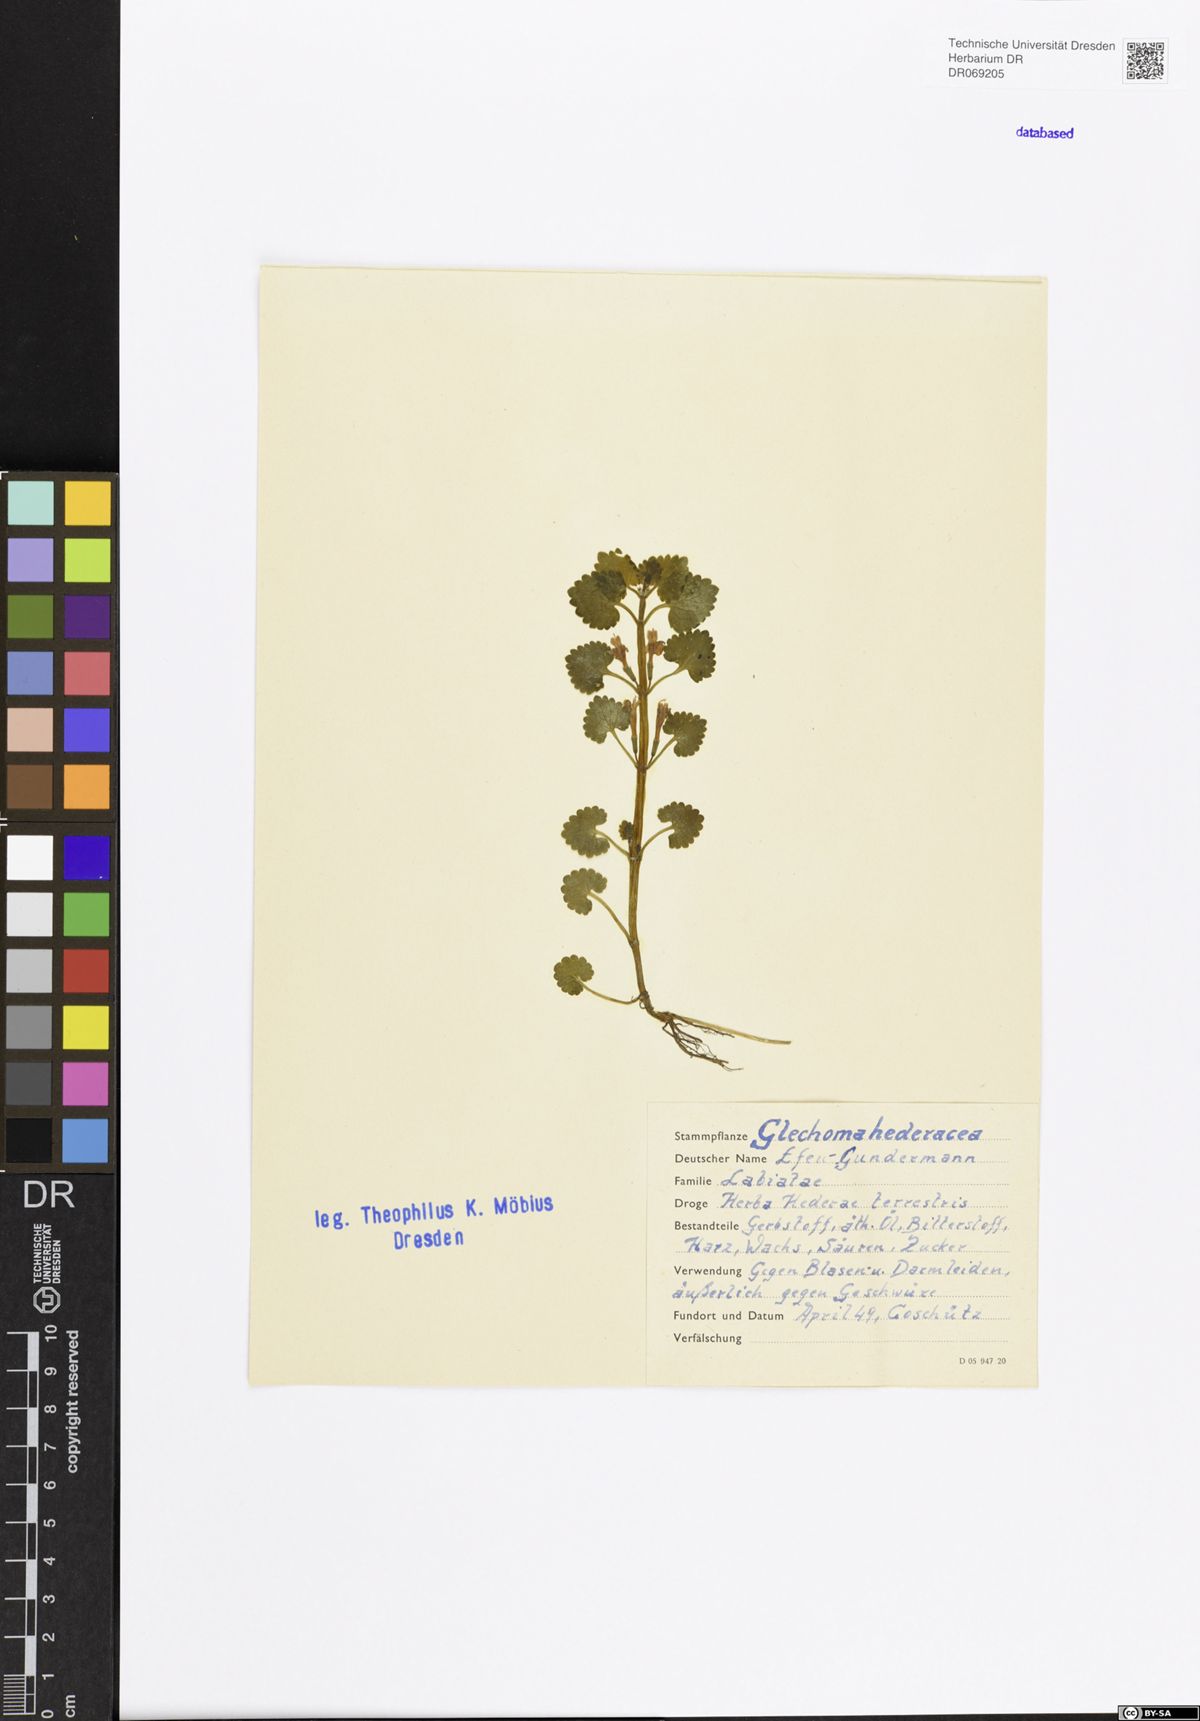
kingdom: Plantae
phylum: Tracheophyta
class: Magnoliopsida
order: Lamiales
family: Lamiaceae
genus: Glechoma
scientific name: Glechoma hederacea
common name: Ground ivy
